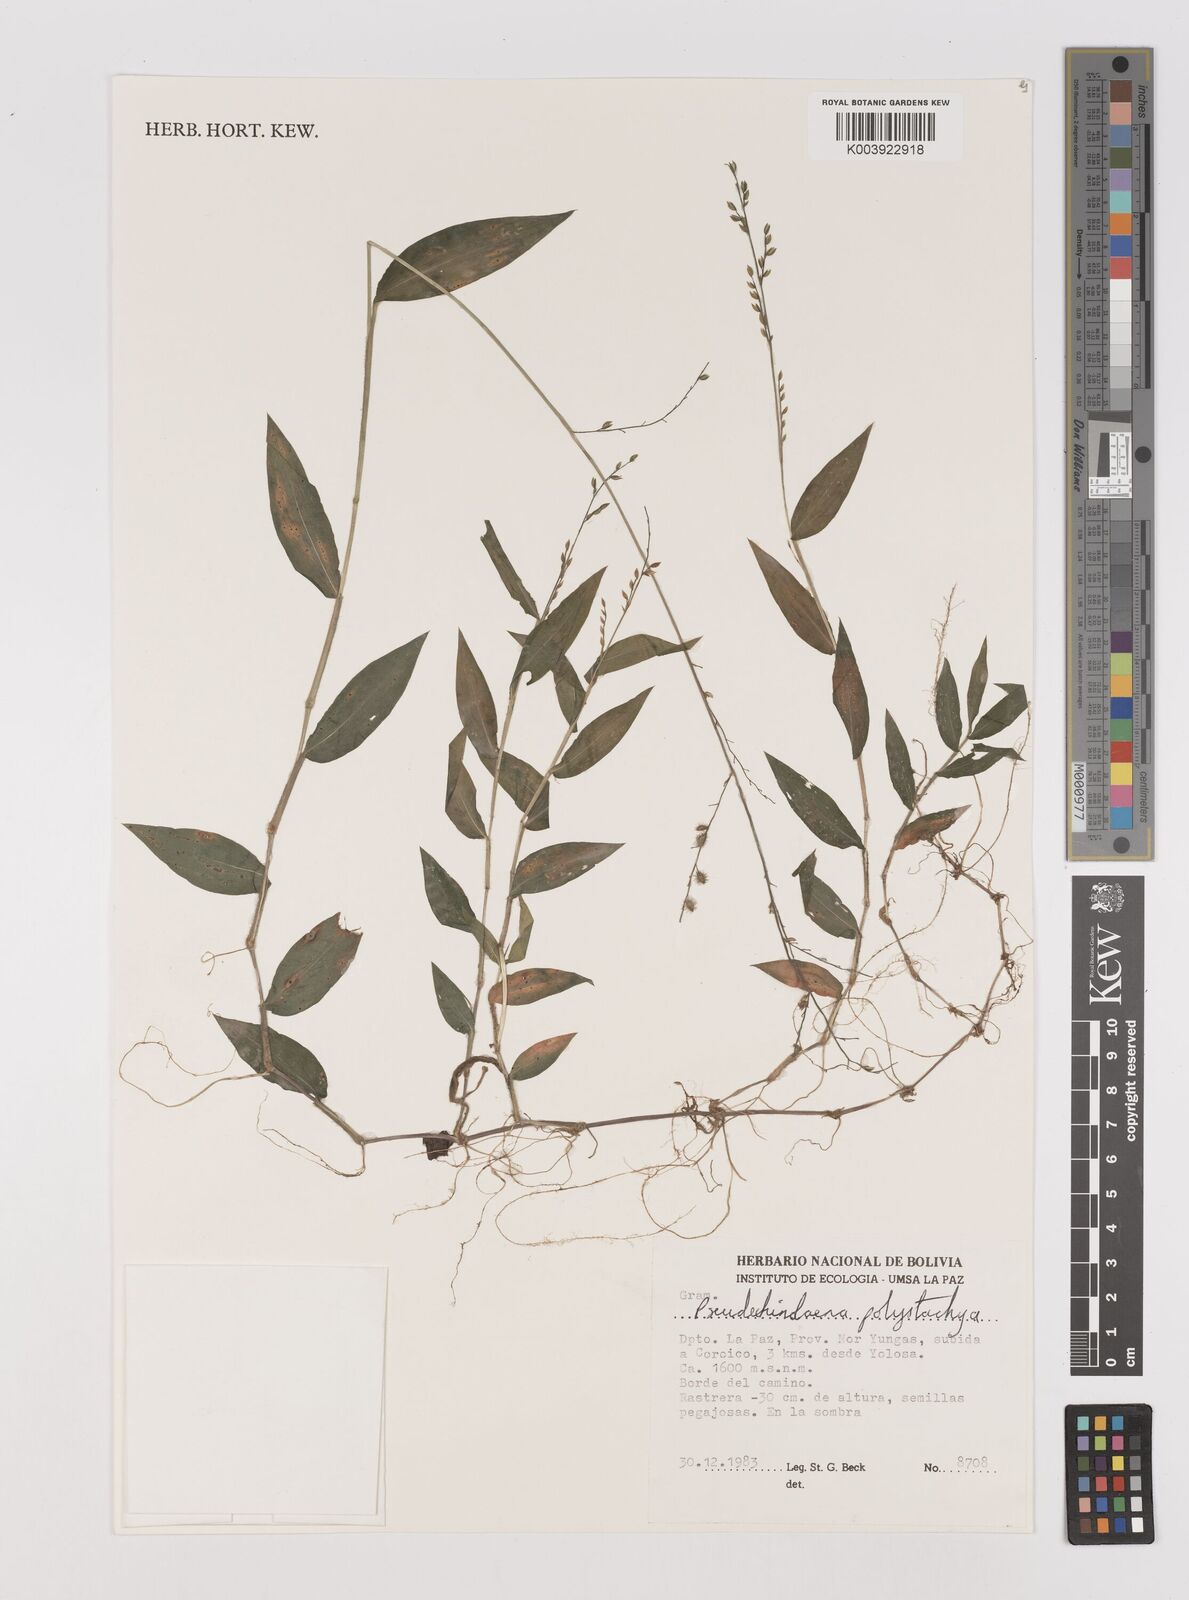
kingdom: Plantae
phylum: Tracheophyta
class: Liliopsida
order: Poales
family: Poaceae
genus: Pseudechinolaena
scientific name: Pseudechinolaena polystachya
